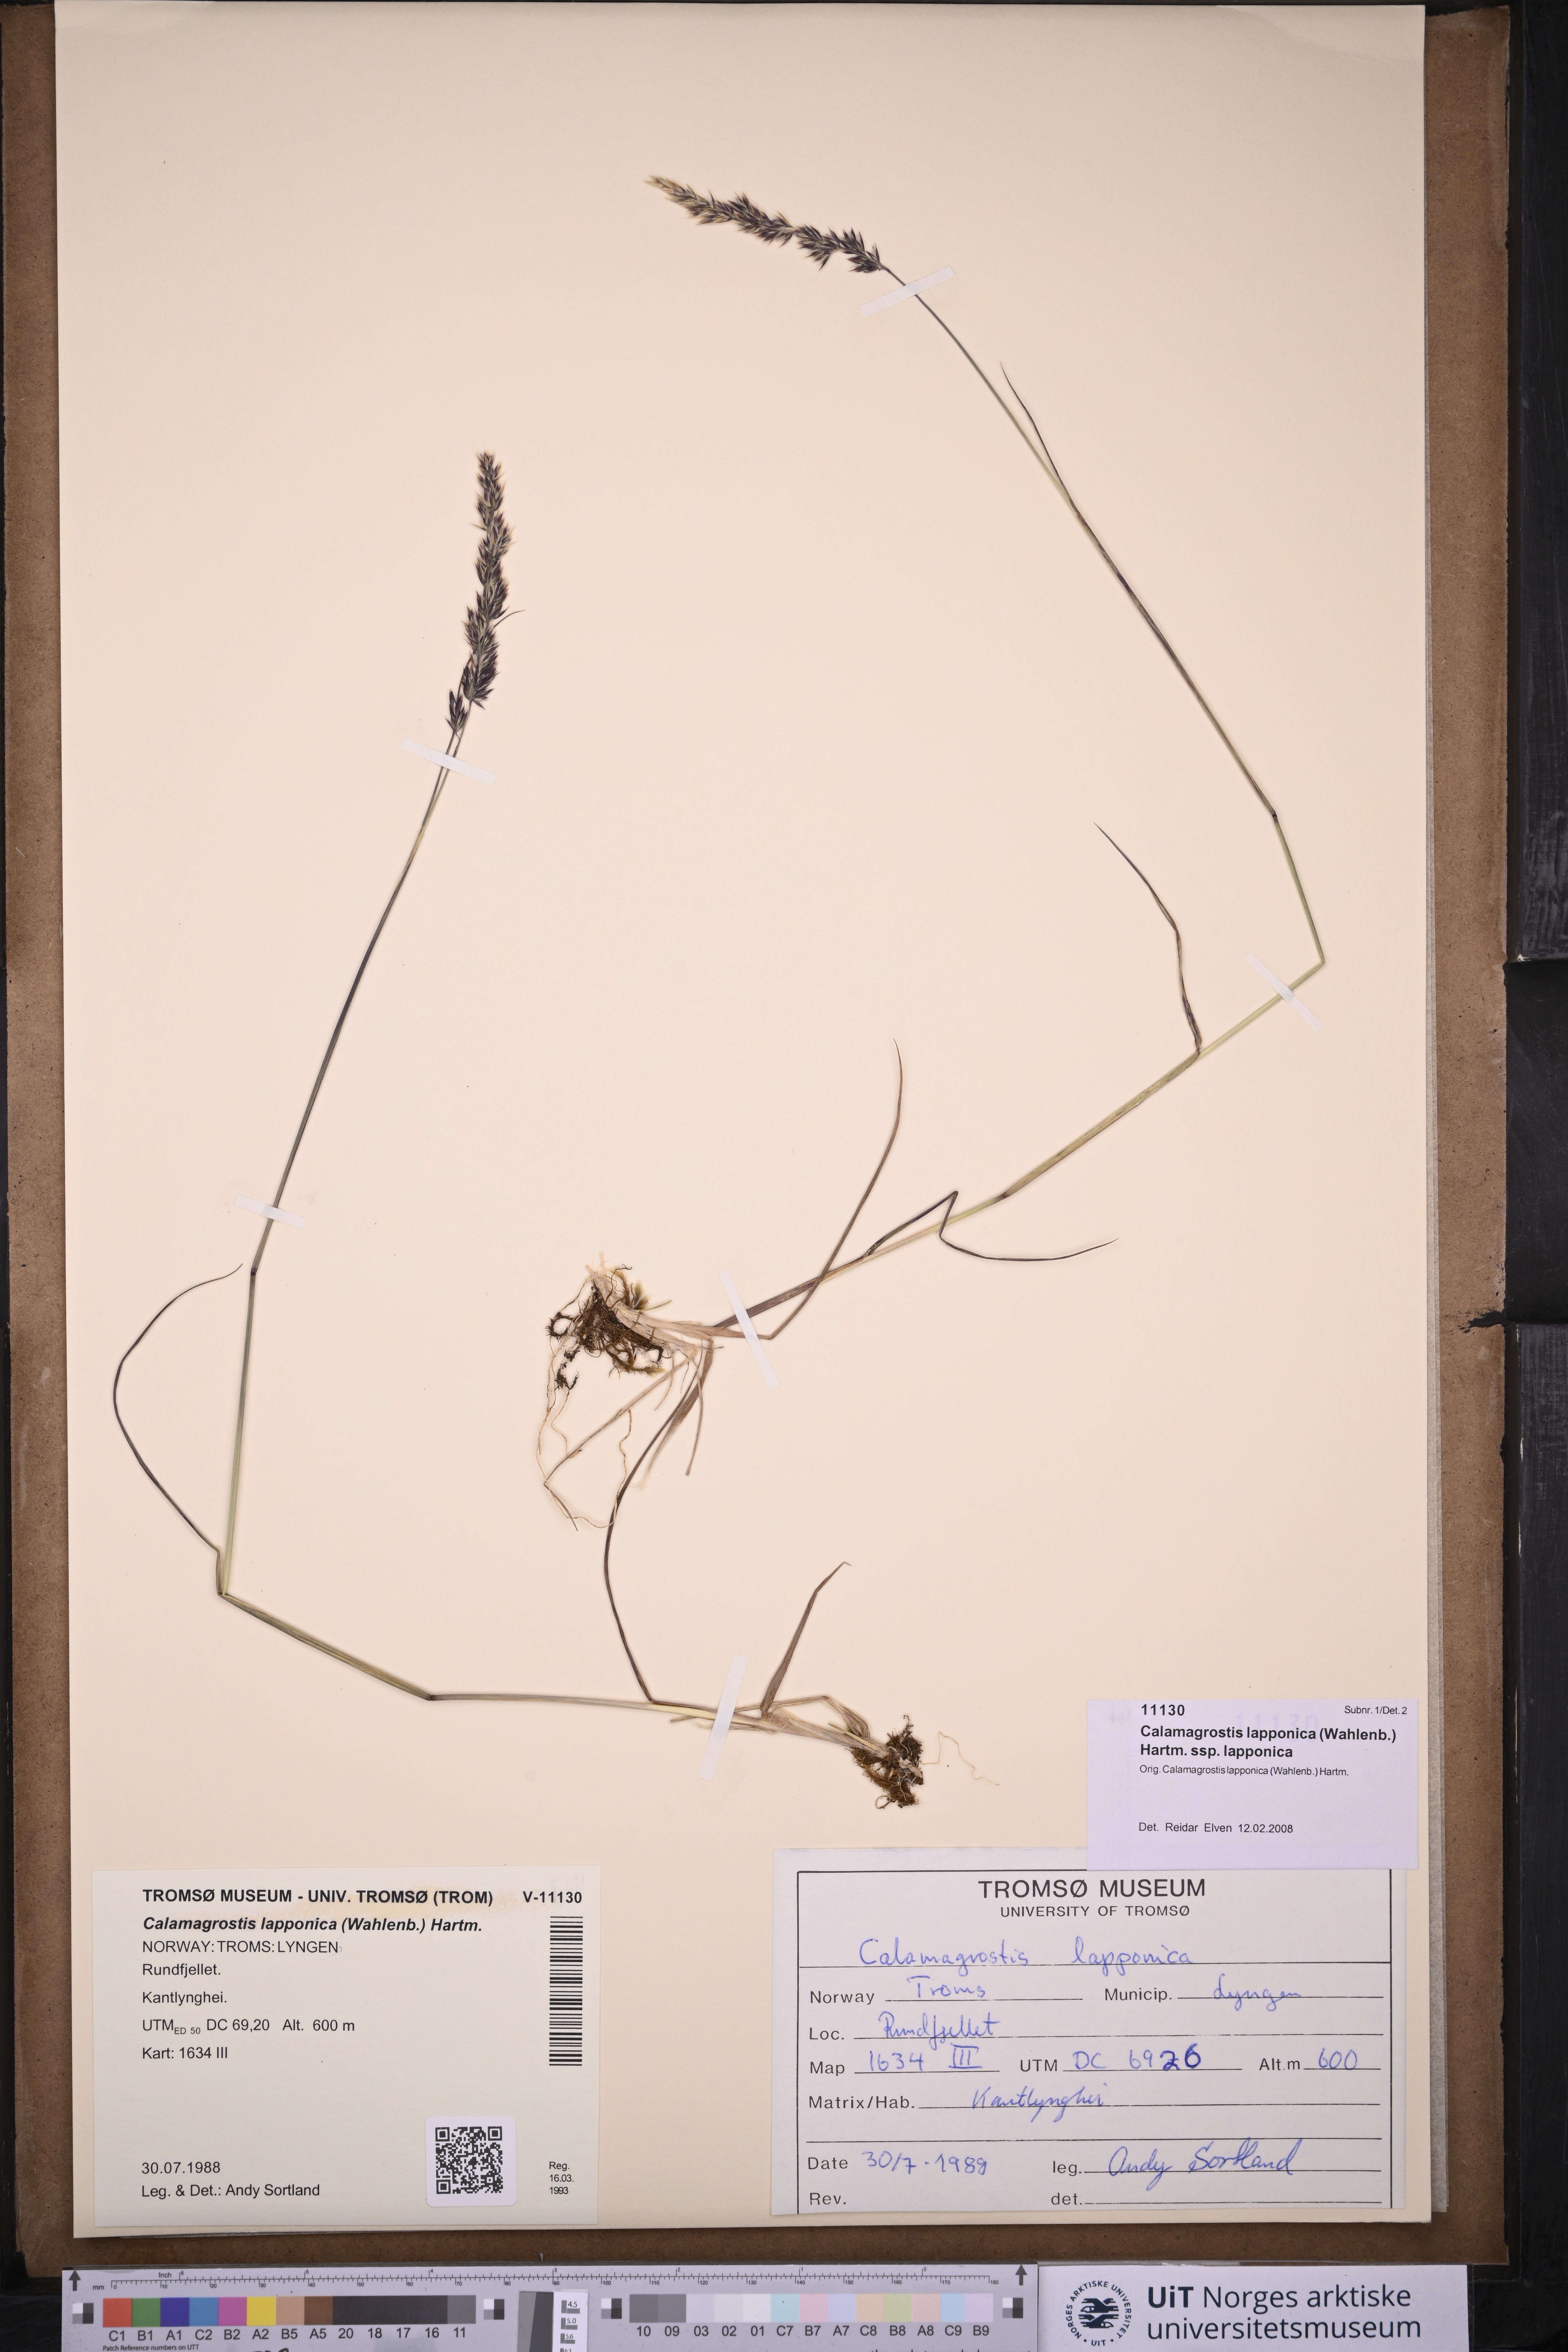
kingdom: Plantae
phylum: Tracheophyta
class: Liliopsida
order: Poales
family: Poaceae
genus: Calamagrostis
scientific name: Calamagrostis lapponica
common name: Lapland reedgrass
